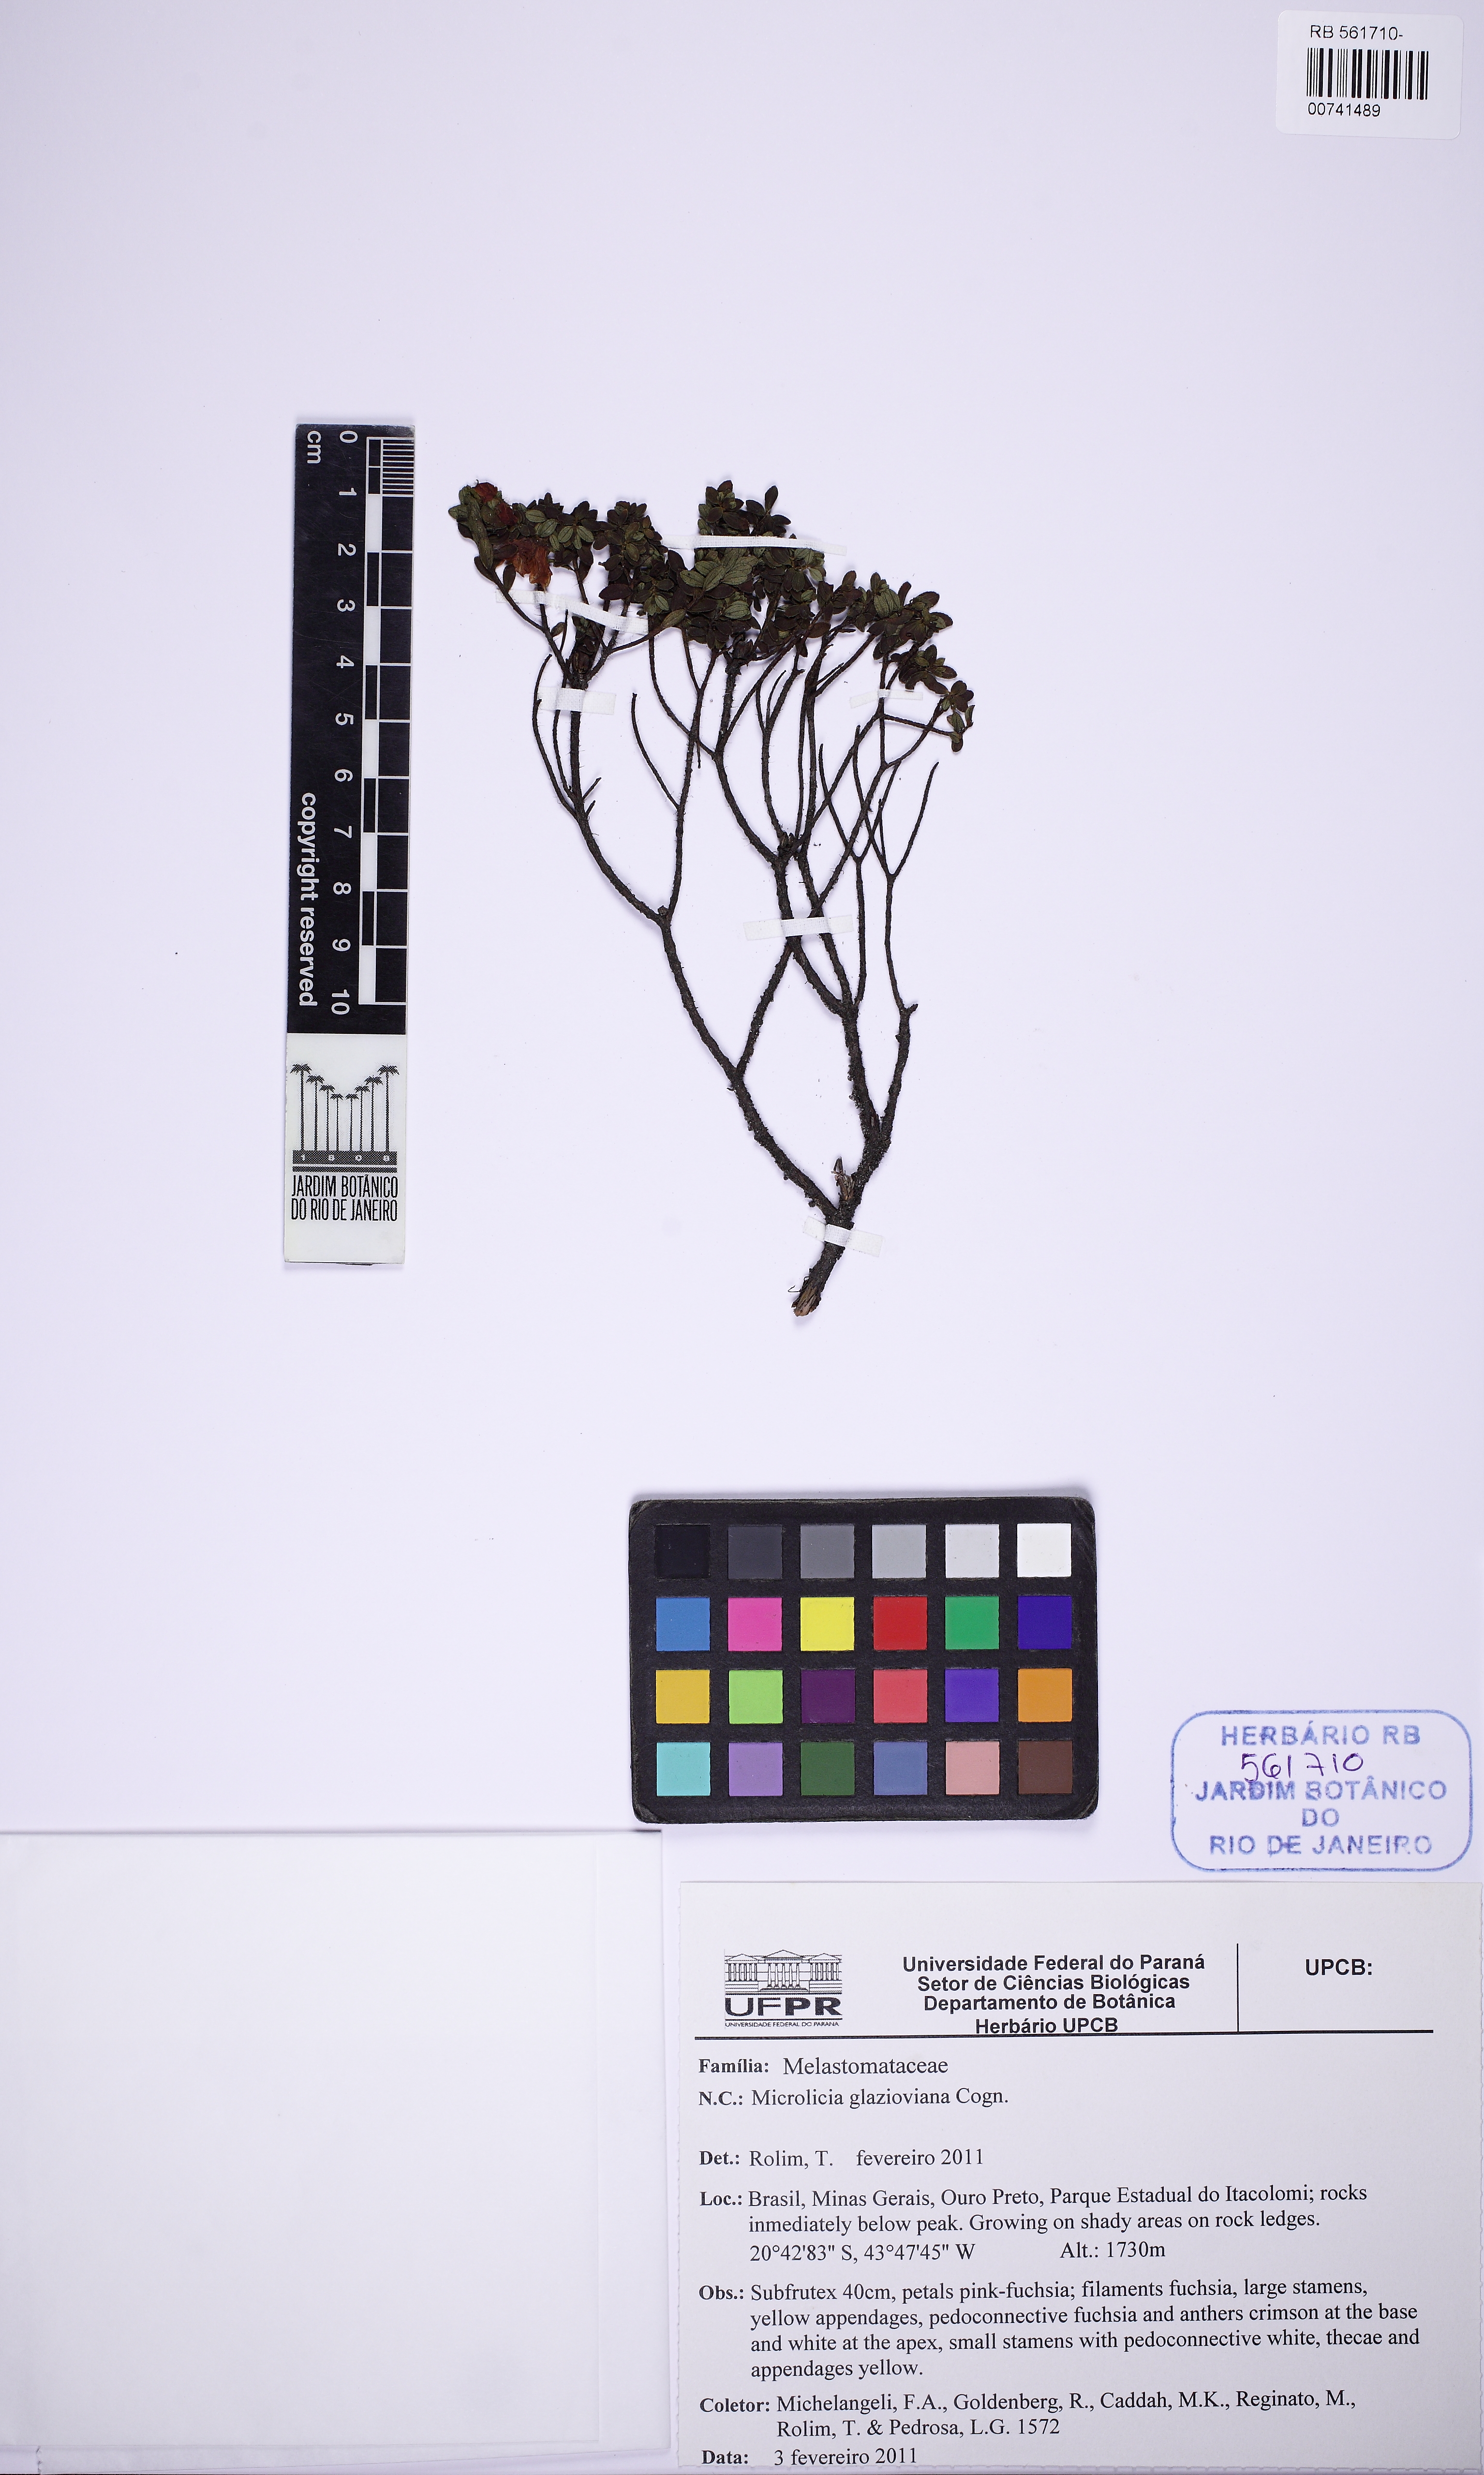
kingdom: Plantae
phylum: Tracheophyta
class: Magnoliopsida
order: Myrtales
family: Melastomataceae
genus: Microlicia
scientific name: Microlicia glazioviana
